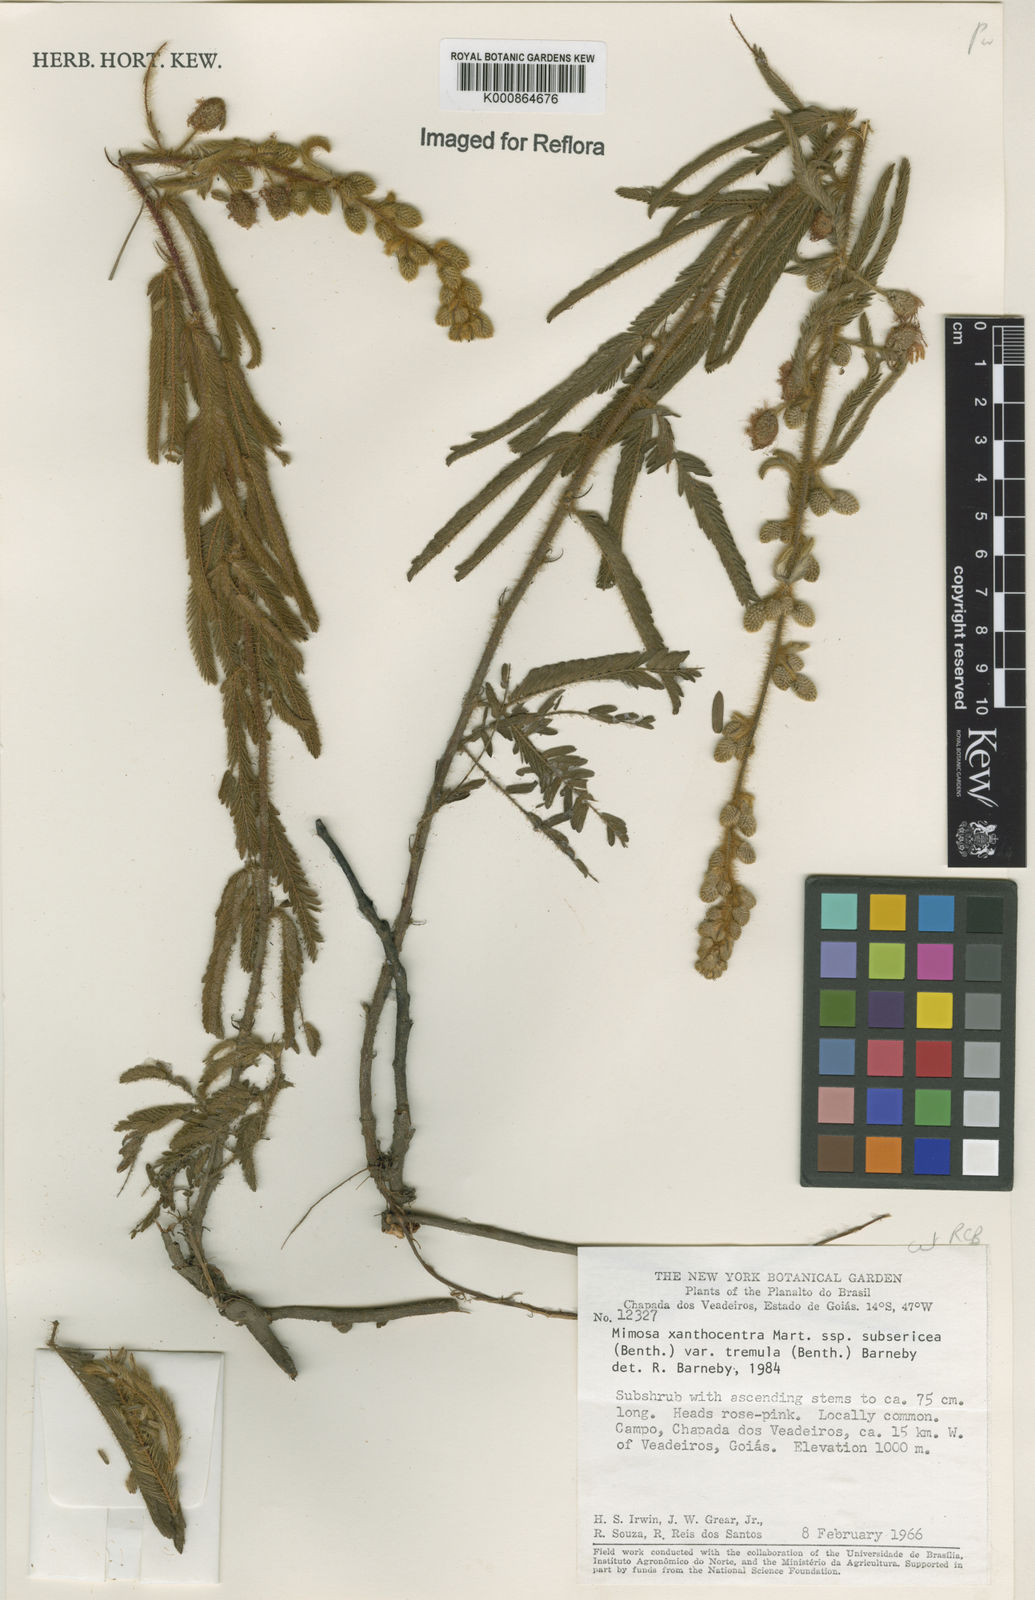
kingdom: Plantae
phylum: Tracheophyta
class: Magnoliopsida
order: Fabales
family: Fabaceae
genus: Mimosa
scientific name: Mimosa xanthocentra
